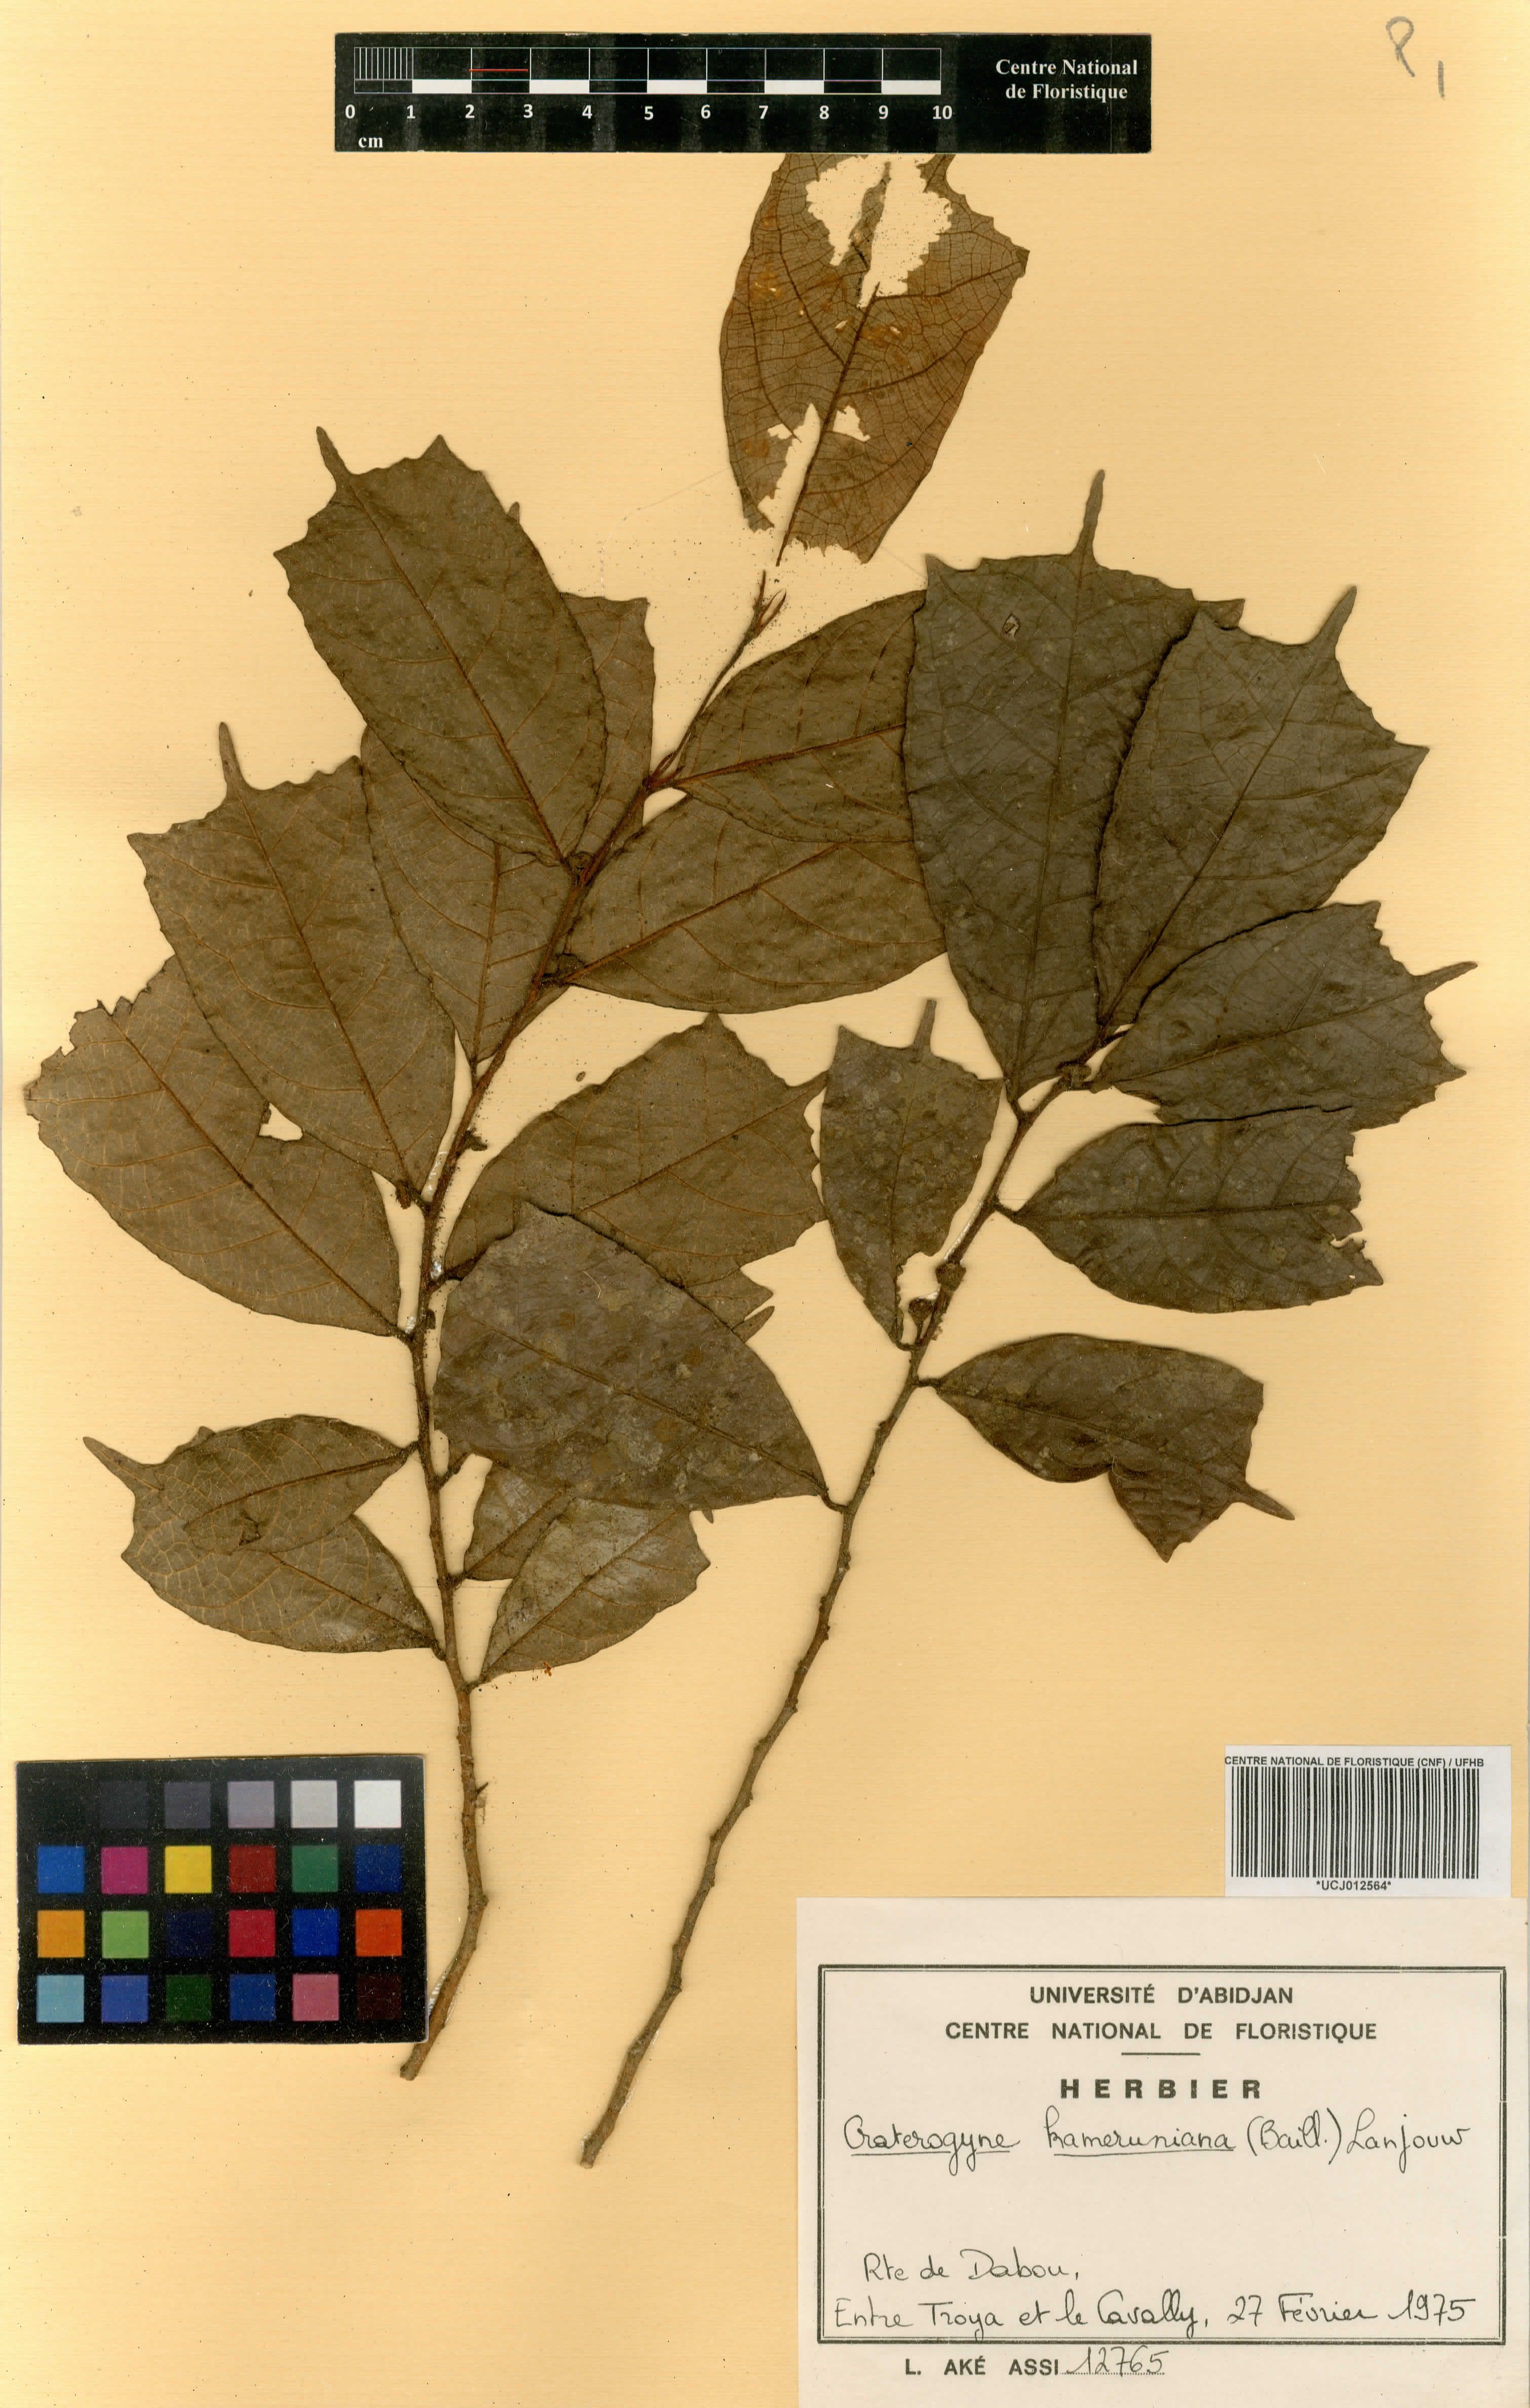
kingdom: Plantae
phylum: Tracheophyta
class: Magnoliopsida
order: Rosales
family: Moraceae
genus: Dorstenia
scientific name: Dorstenia kameruniana
